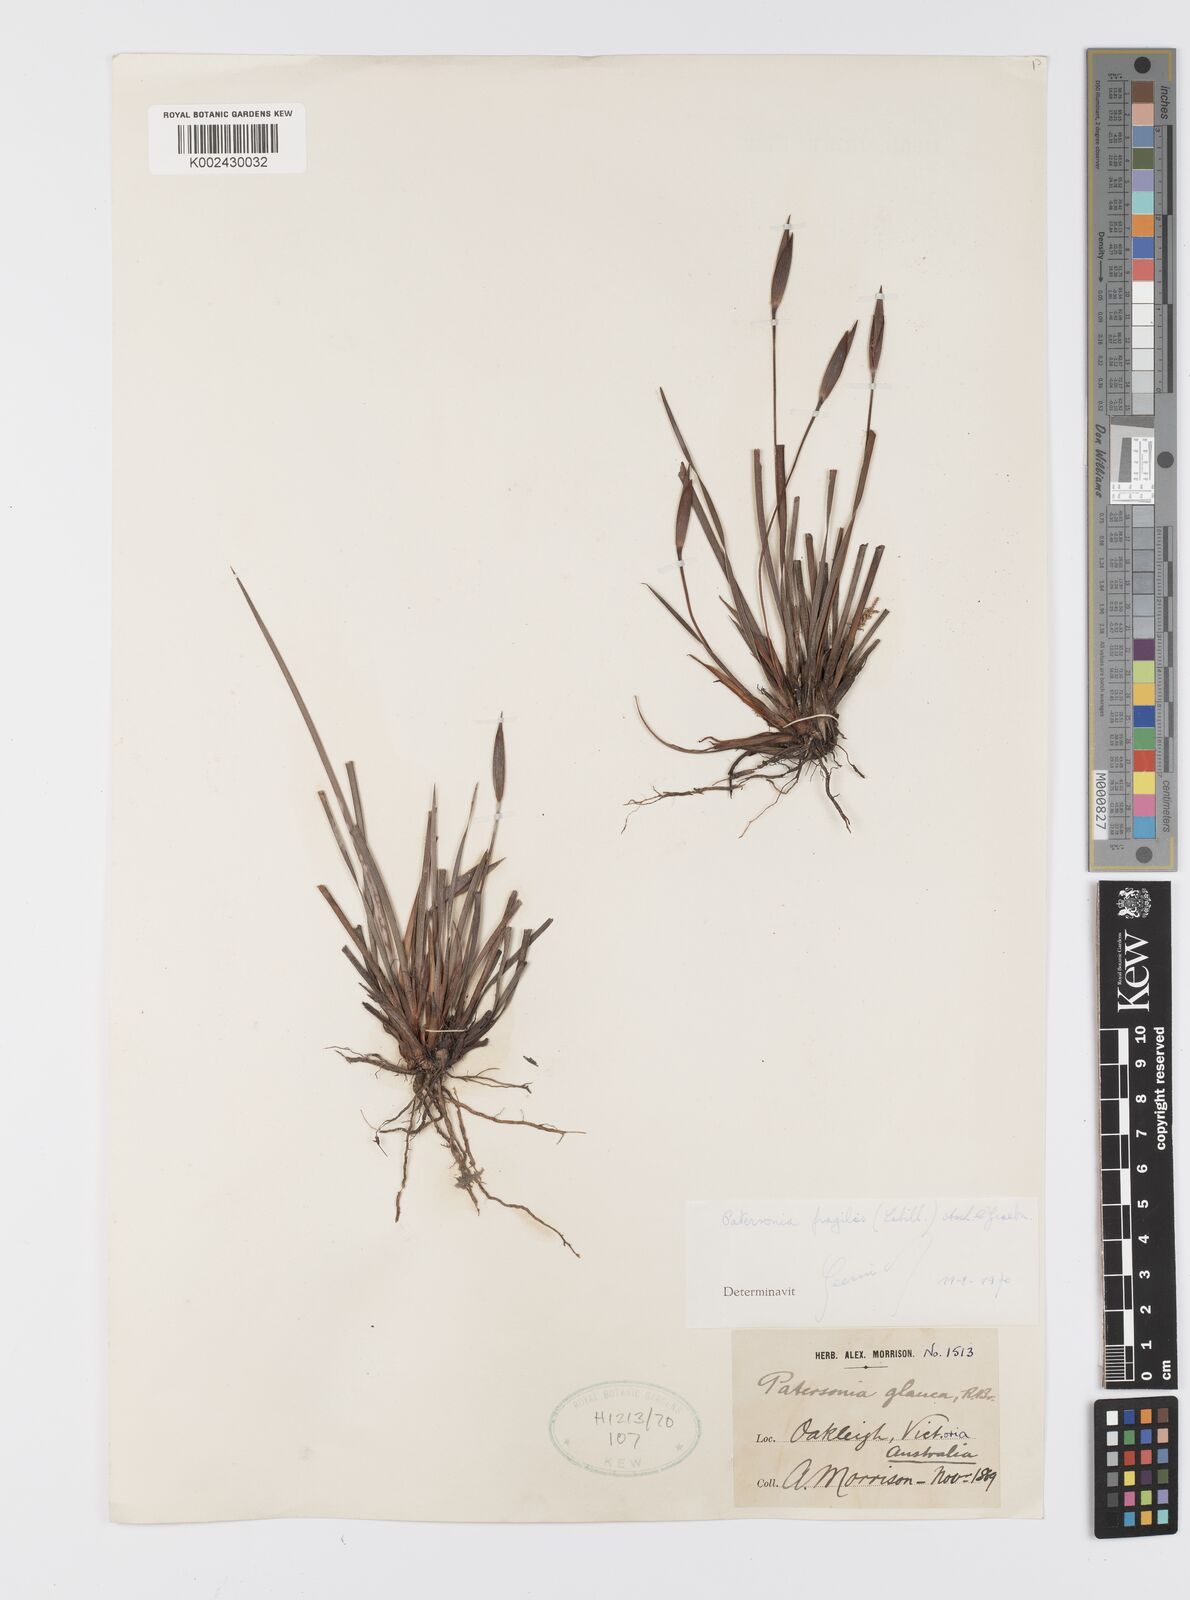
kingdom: Plantae
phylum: Tracheophyta
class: Liliopsida
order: Asparagales
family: Iridaceae
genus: Patersonia
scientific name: Patersonia fragilis
